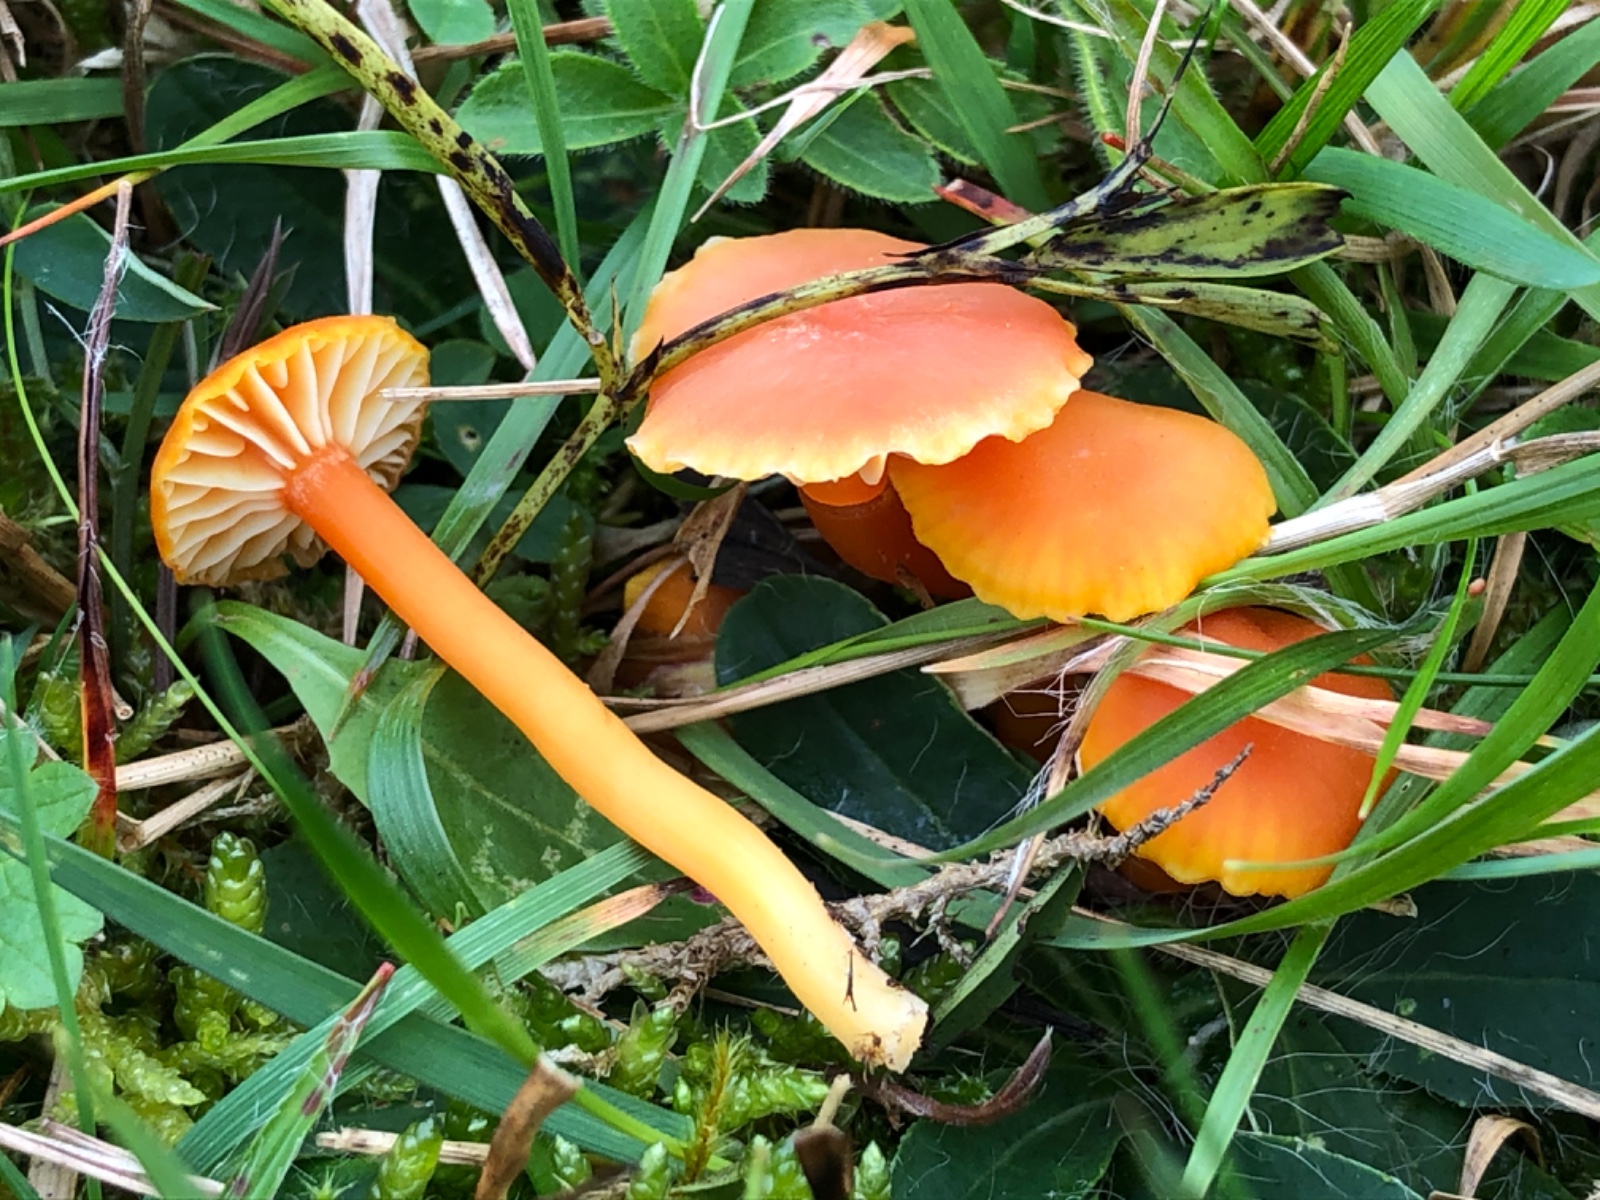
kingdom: Fungi
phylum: Basidiomycota
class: Agaricomycetes
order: Agaricales
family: Hygrophoraceae
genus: Hygrocybe
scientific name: Hygrocybe reidii
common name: honning-vokshat
